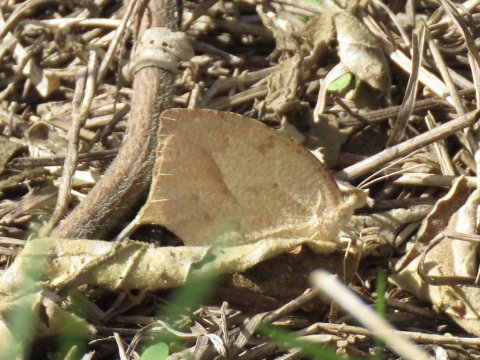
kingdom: Animalia
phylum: Arthropoda
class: Insecta
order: Lepidoptera
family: Pieridae
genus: Eurema
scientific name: Eurema mexicana
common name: Mexican Yellow
